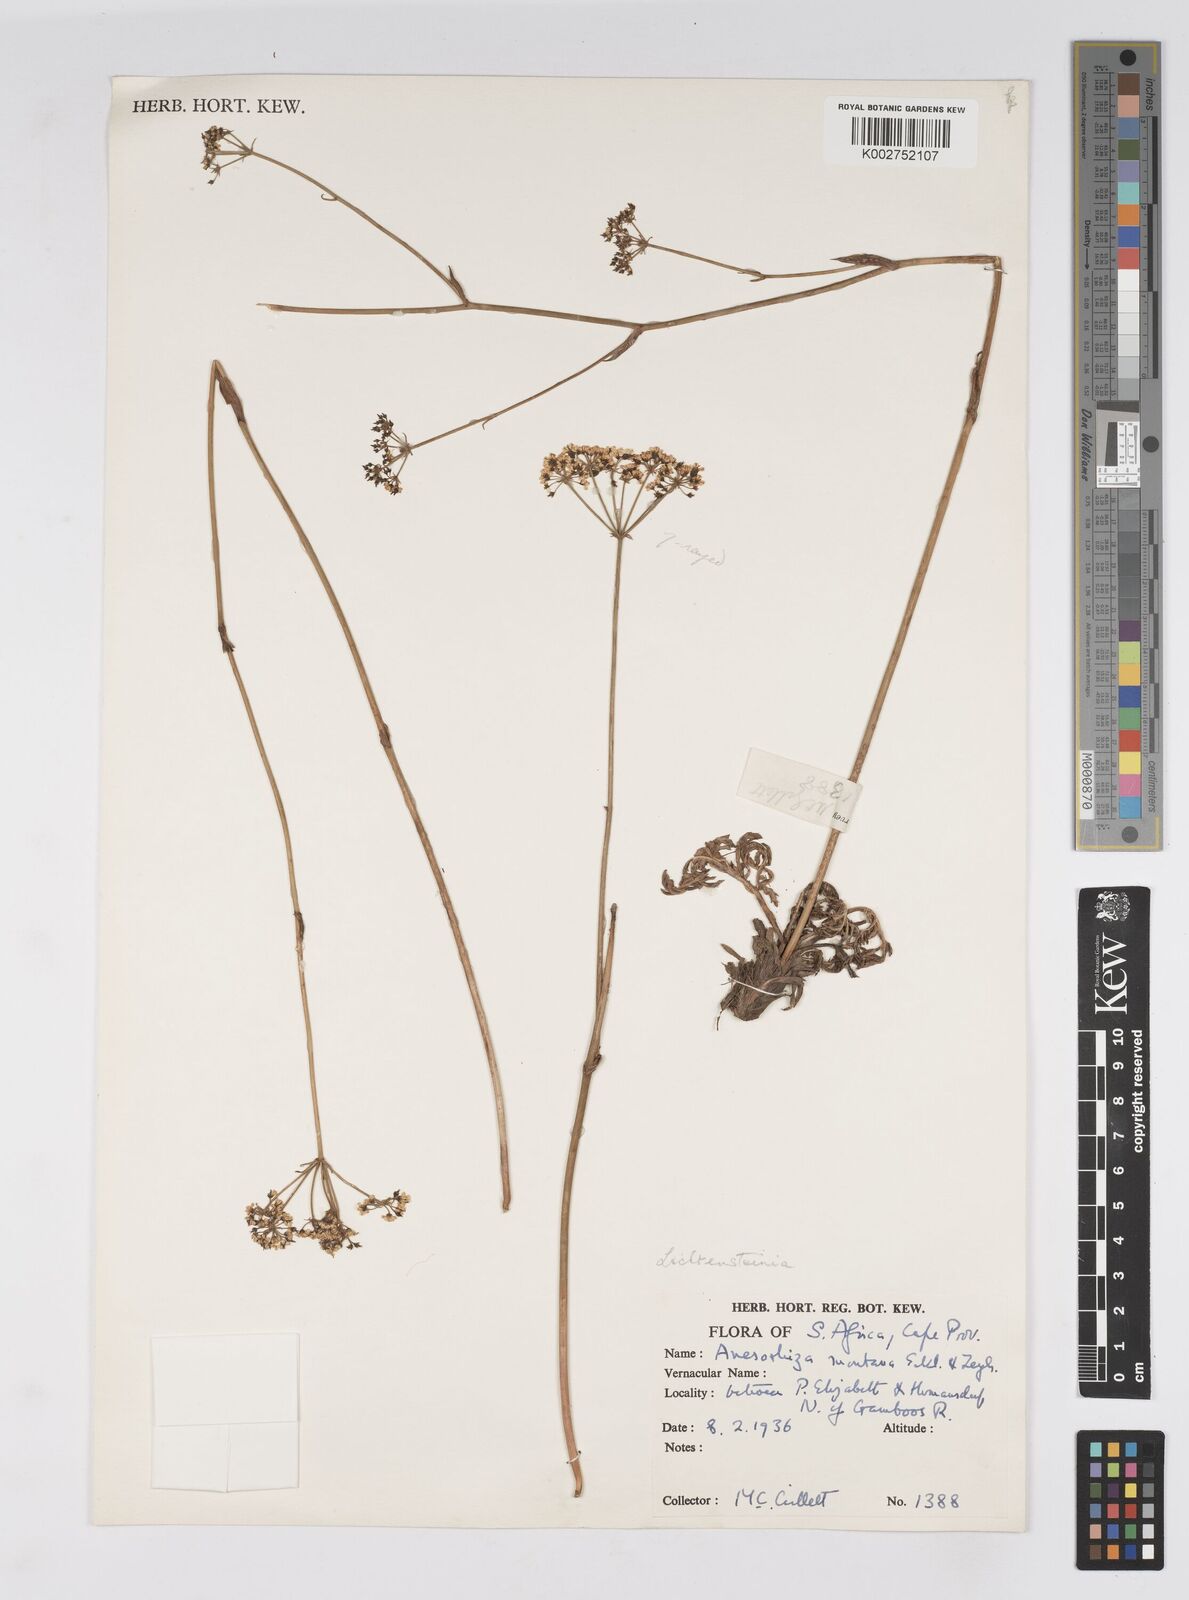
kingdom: Plantae
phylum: Tracheophyta
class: Magnoliopsida
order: Apiales
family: Apiaceae
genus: Lichtensteinia
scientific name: Lichtensteinia interrupta
